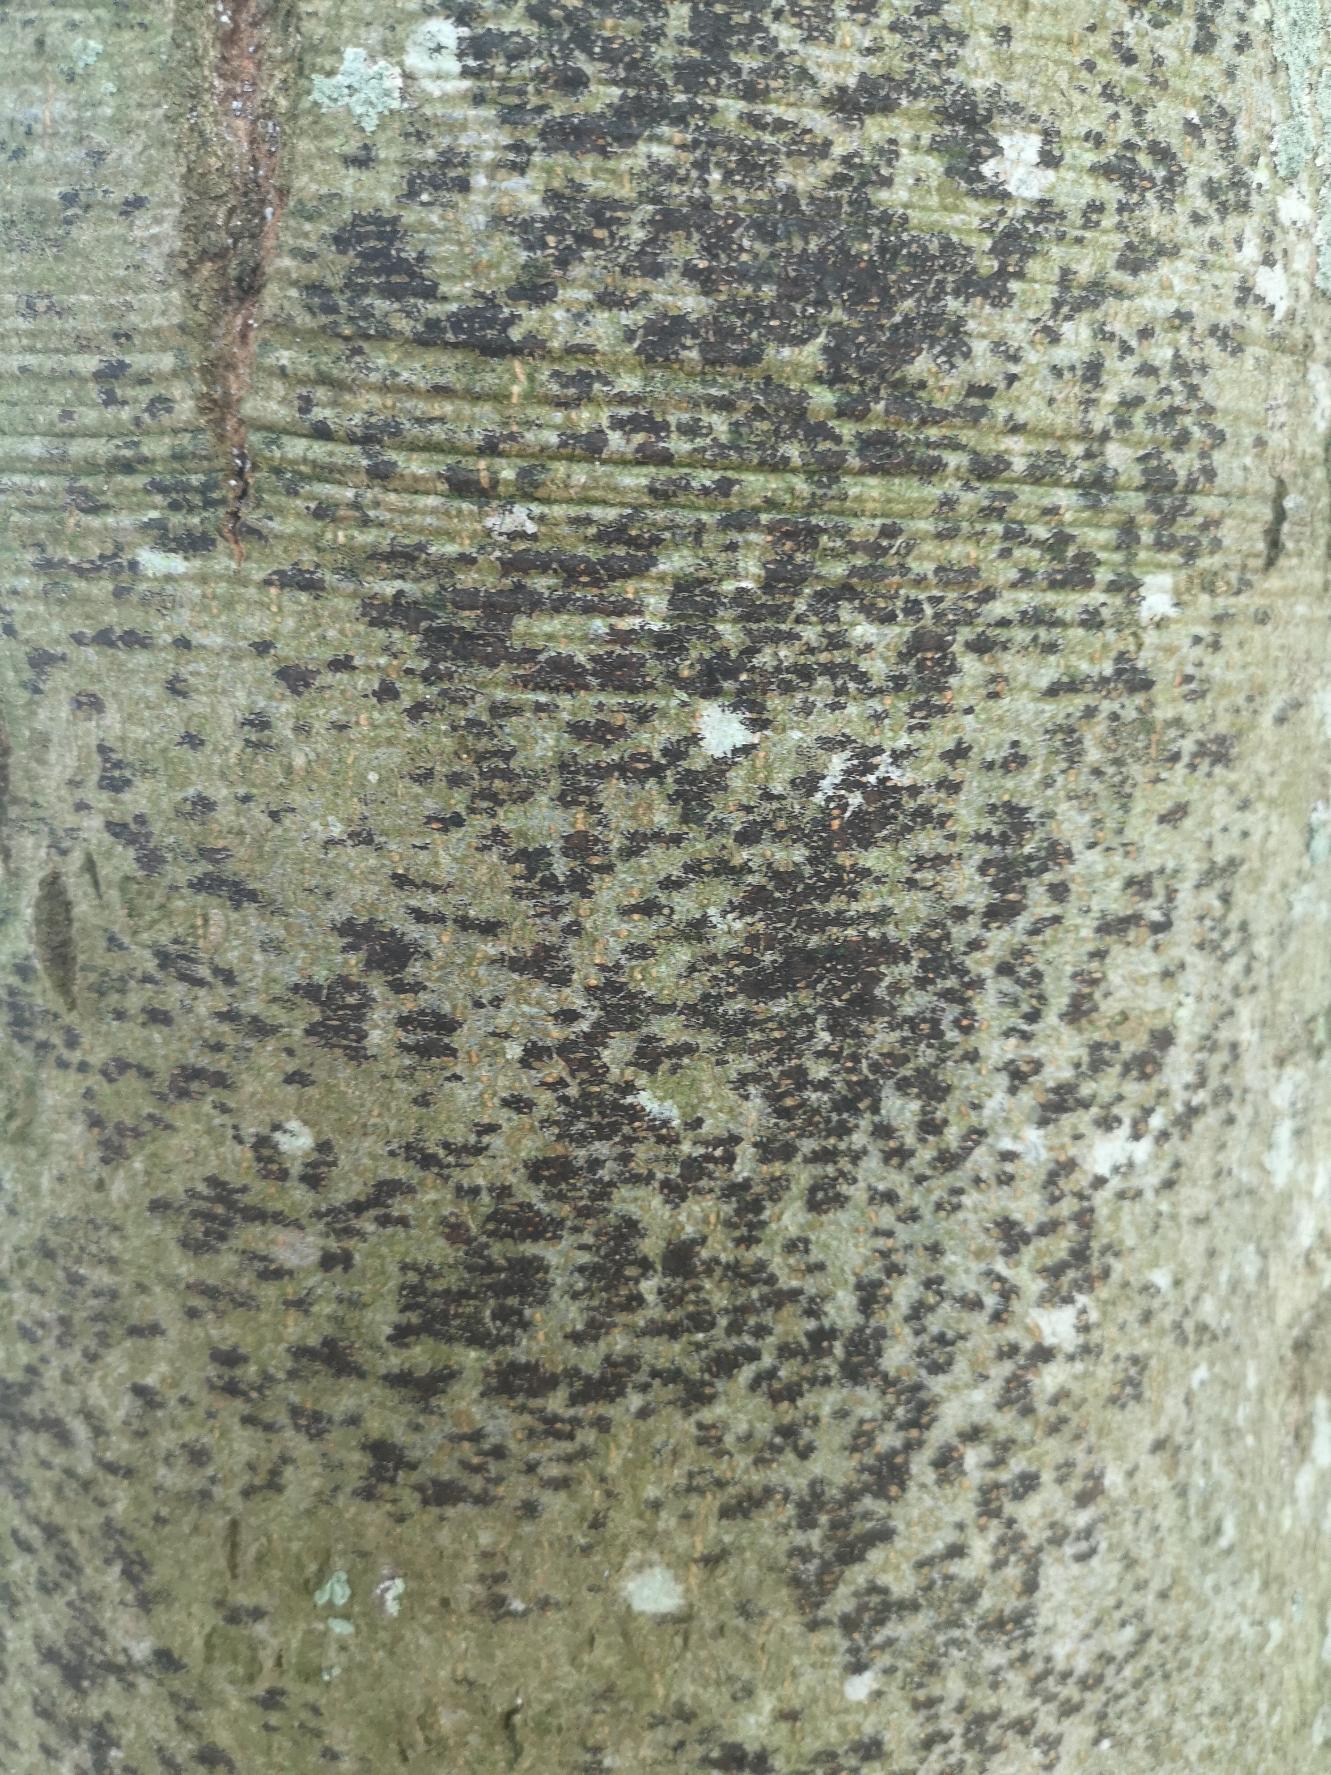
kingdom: Fungi
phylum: Ascomycota
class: Leotiomycetes
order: Rhytismatales
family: Ascodichaenaceae
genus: Ascodichaena
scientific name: Ascodichaena rugosa
